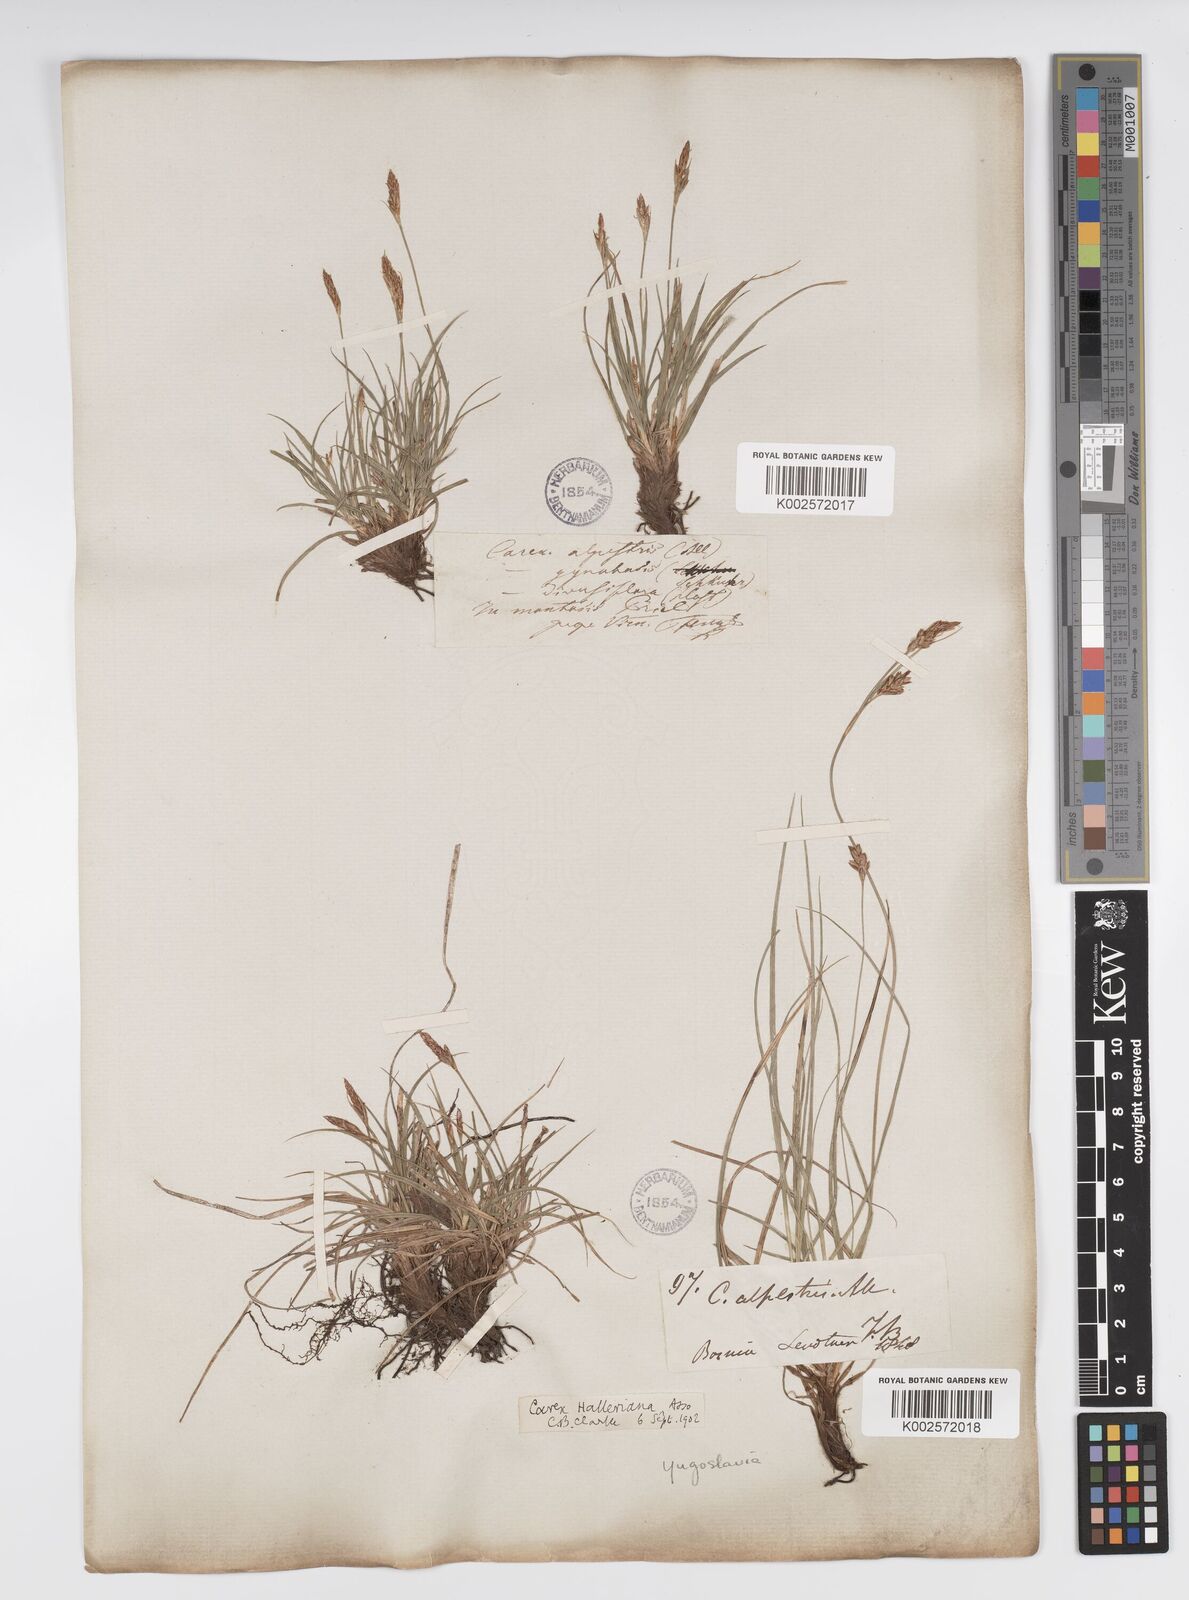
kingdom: Plantae
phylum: Tracheophyta
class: Liliopsida
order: Poales
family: Cyperaceae
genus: Carex
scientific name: Carex halleriana
